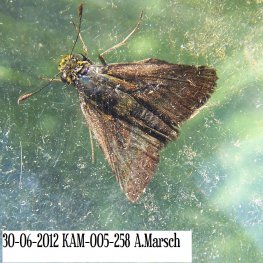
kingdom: Animalia
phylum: Arthropoda
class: Insecta
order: Lepidoptera
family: Hesperiidae
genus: Euphyes
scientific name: Euphyes vestris
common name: Dun Skipper
